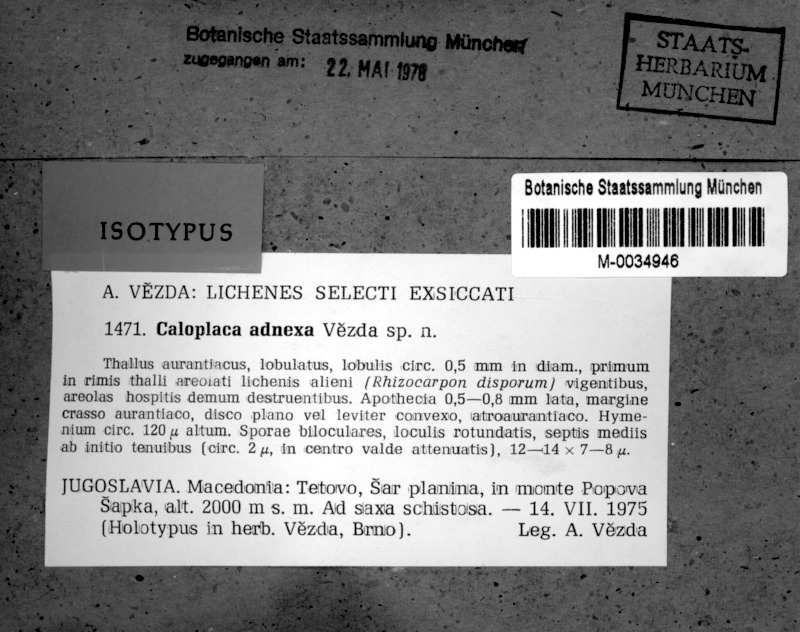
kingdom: Fungi
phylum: Ascomycota
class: Lecanoromycetes
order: Teloschistales
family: Teloschistaceae
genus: Caloplaca
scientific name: Caloplaca adnexa
